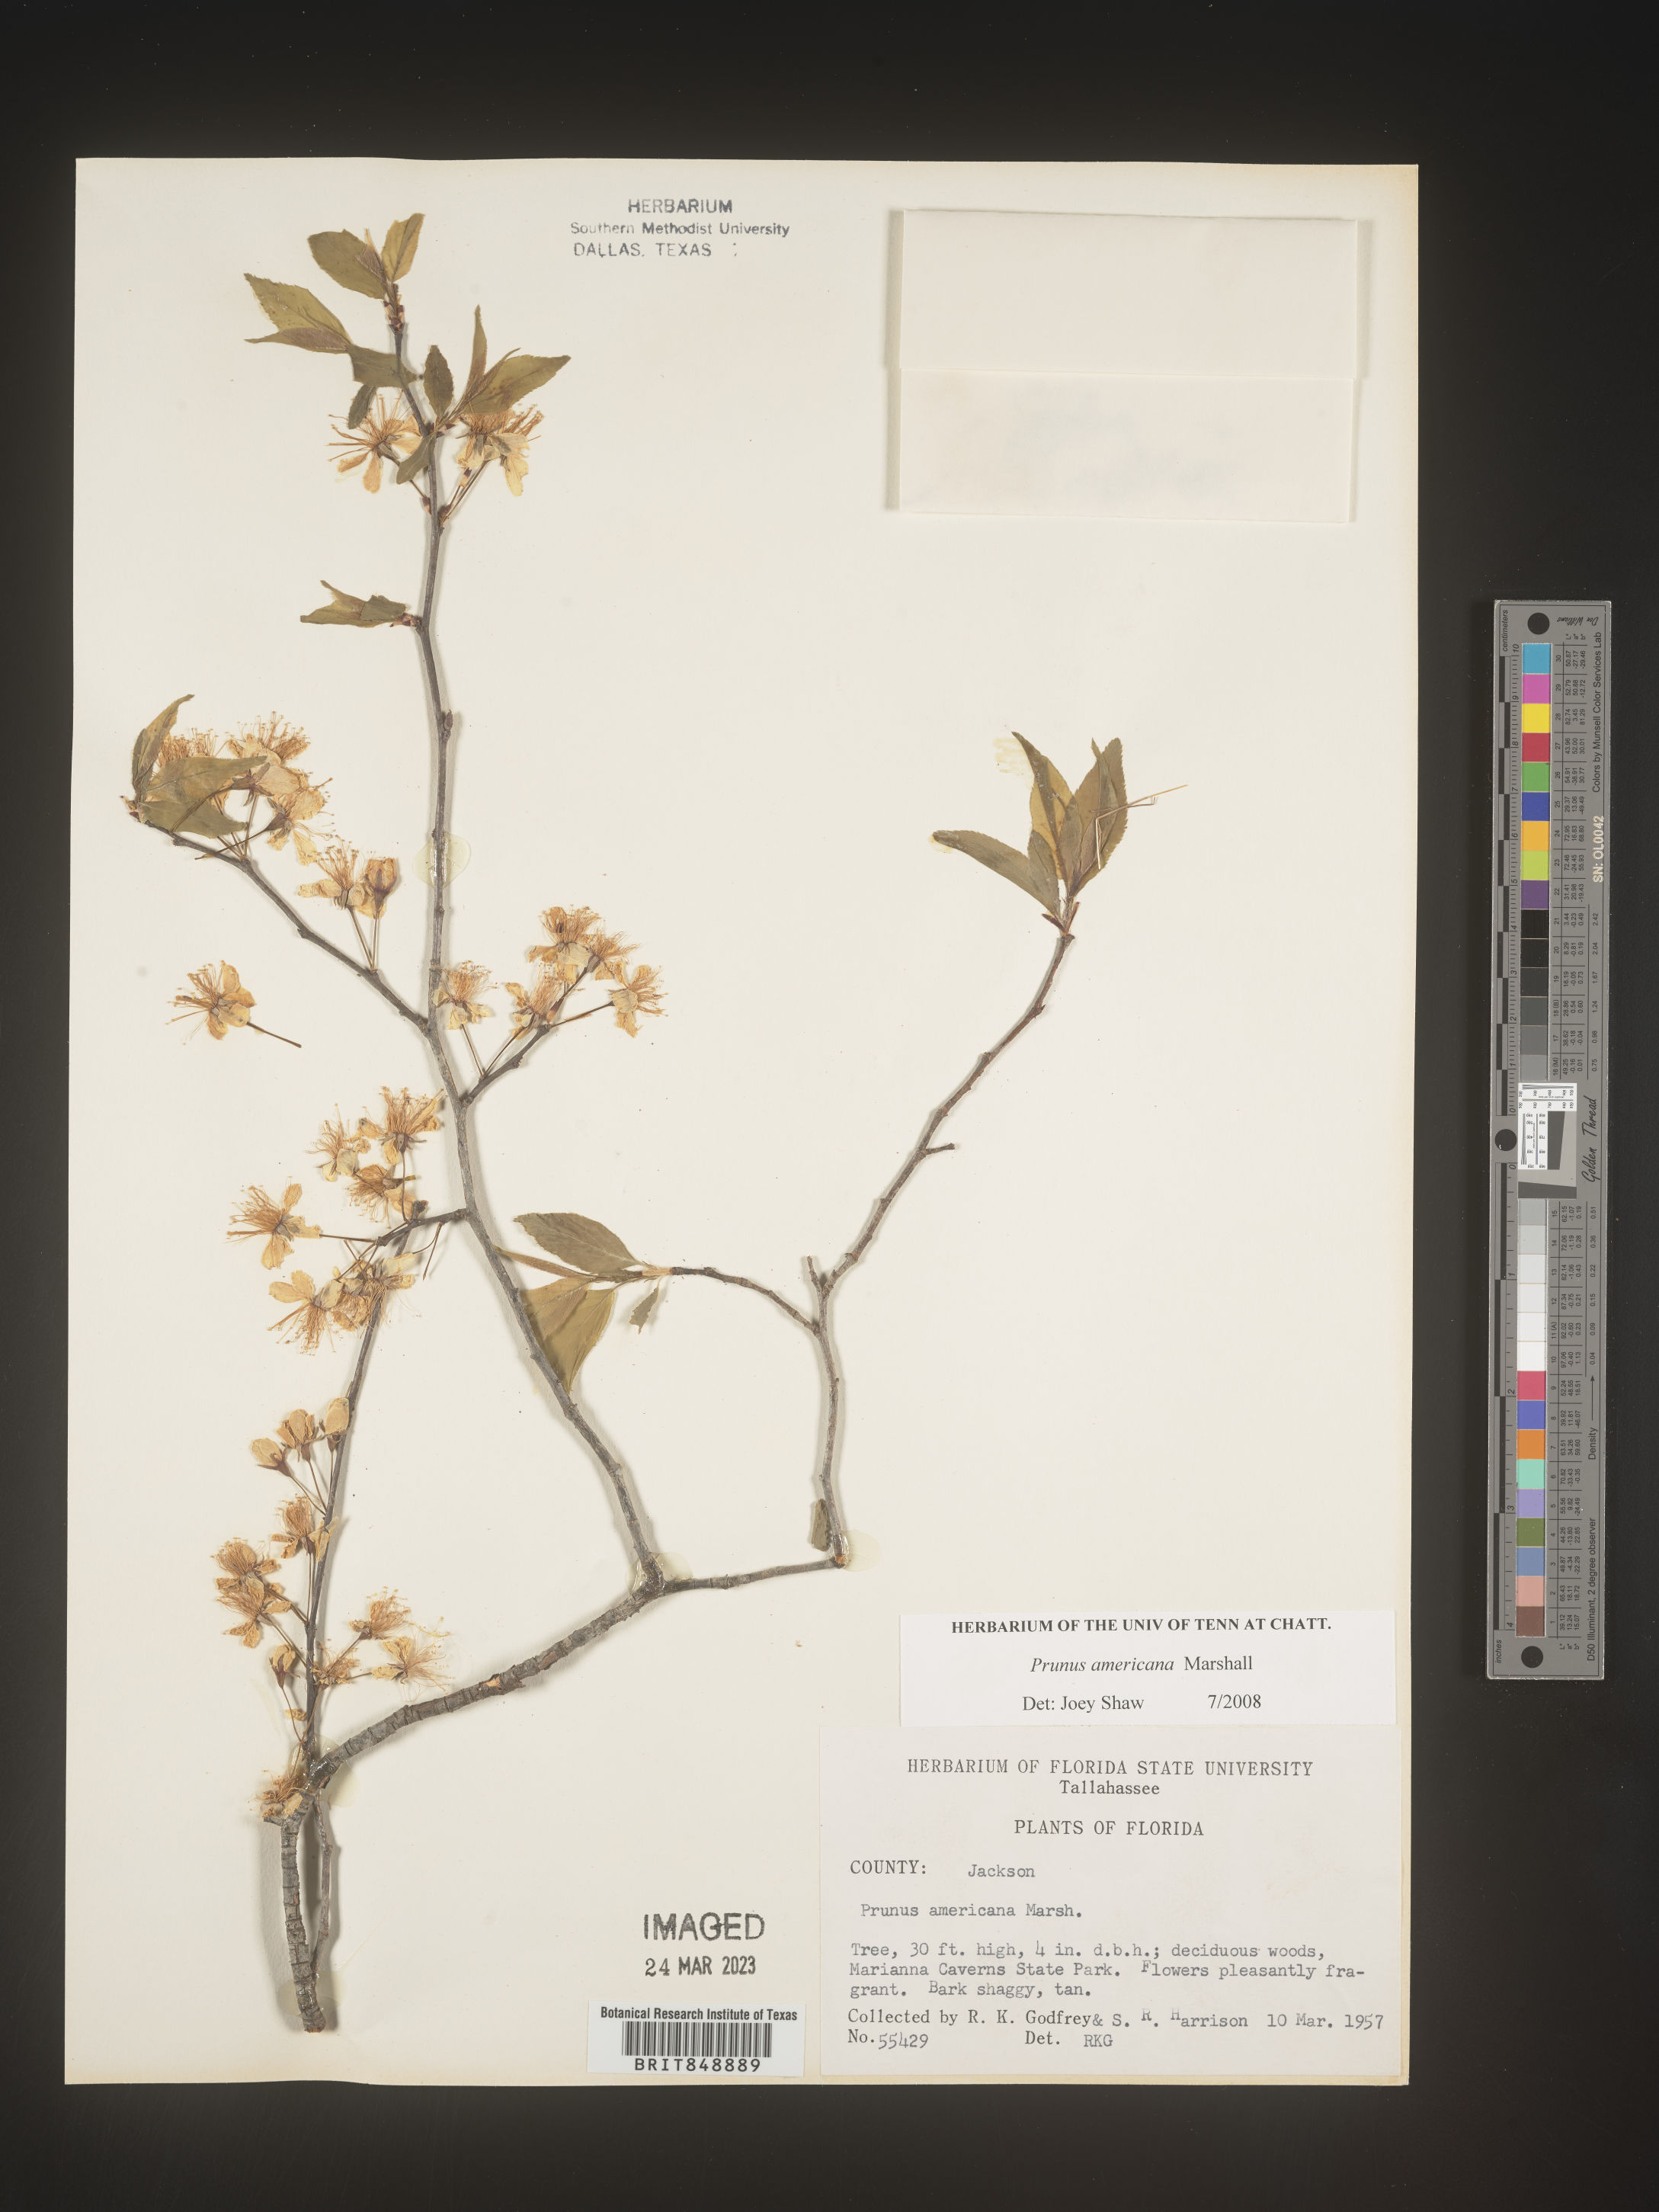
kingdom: Plantae
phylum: Tracheophyta
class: Magnoliopsida
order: Rosales
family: Rosaceae
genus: Prunus
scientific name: Prunus americana
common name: American plum
